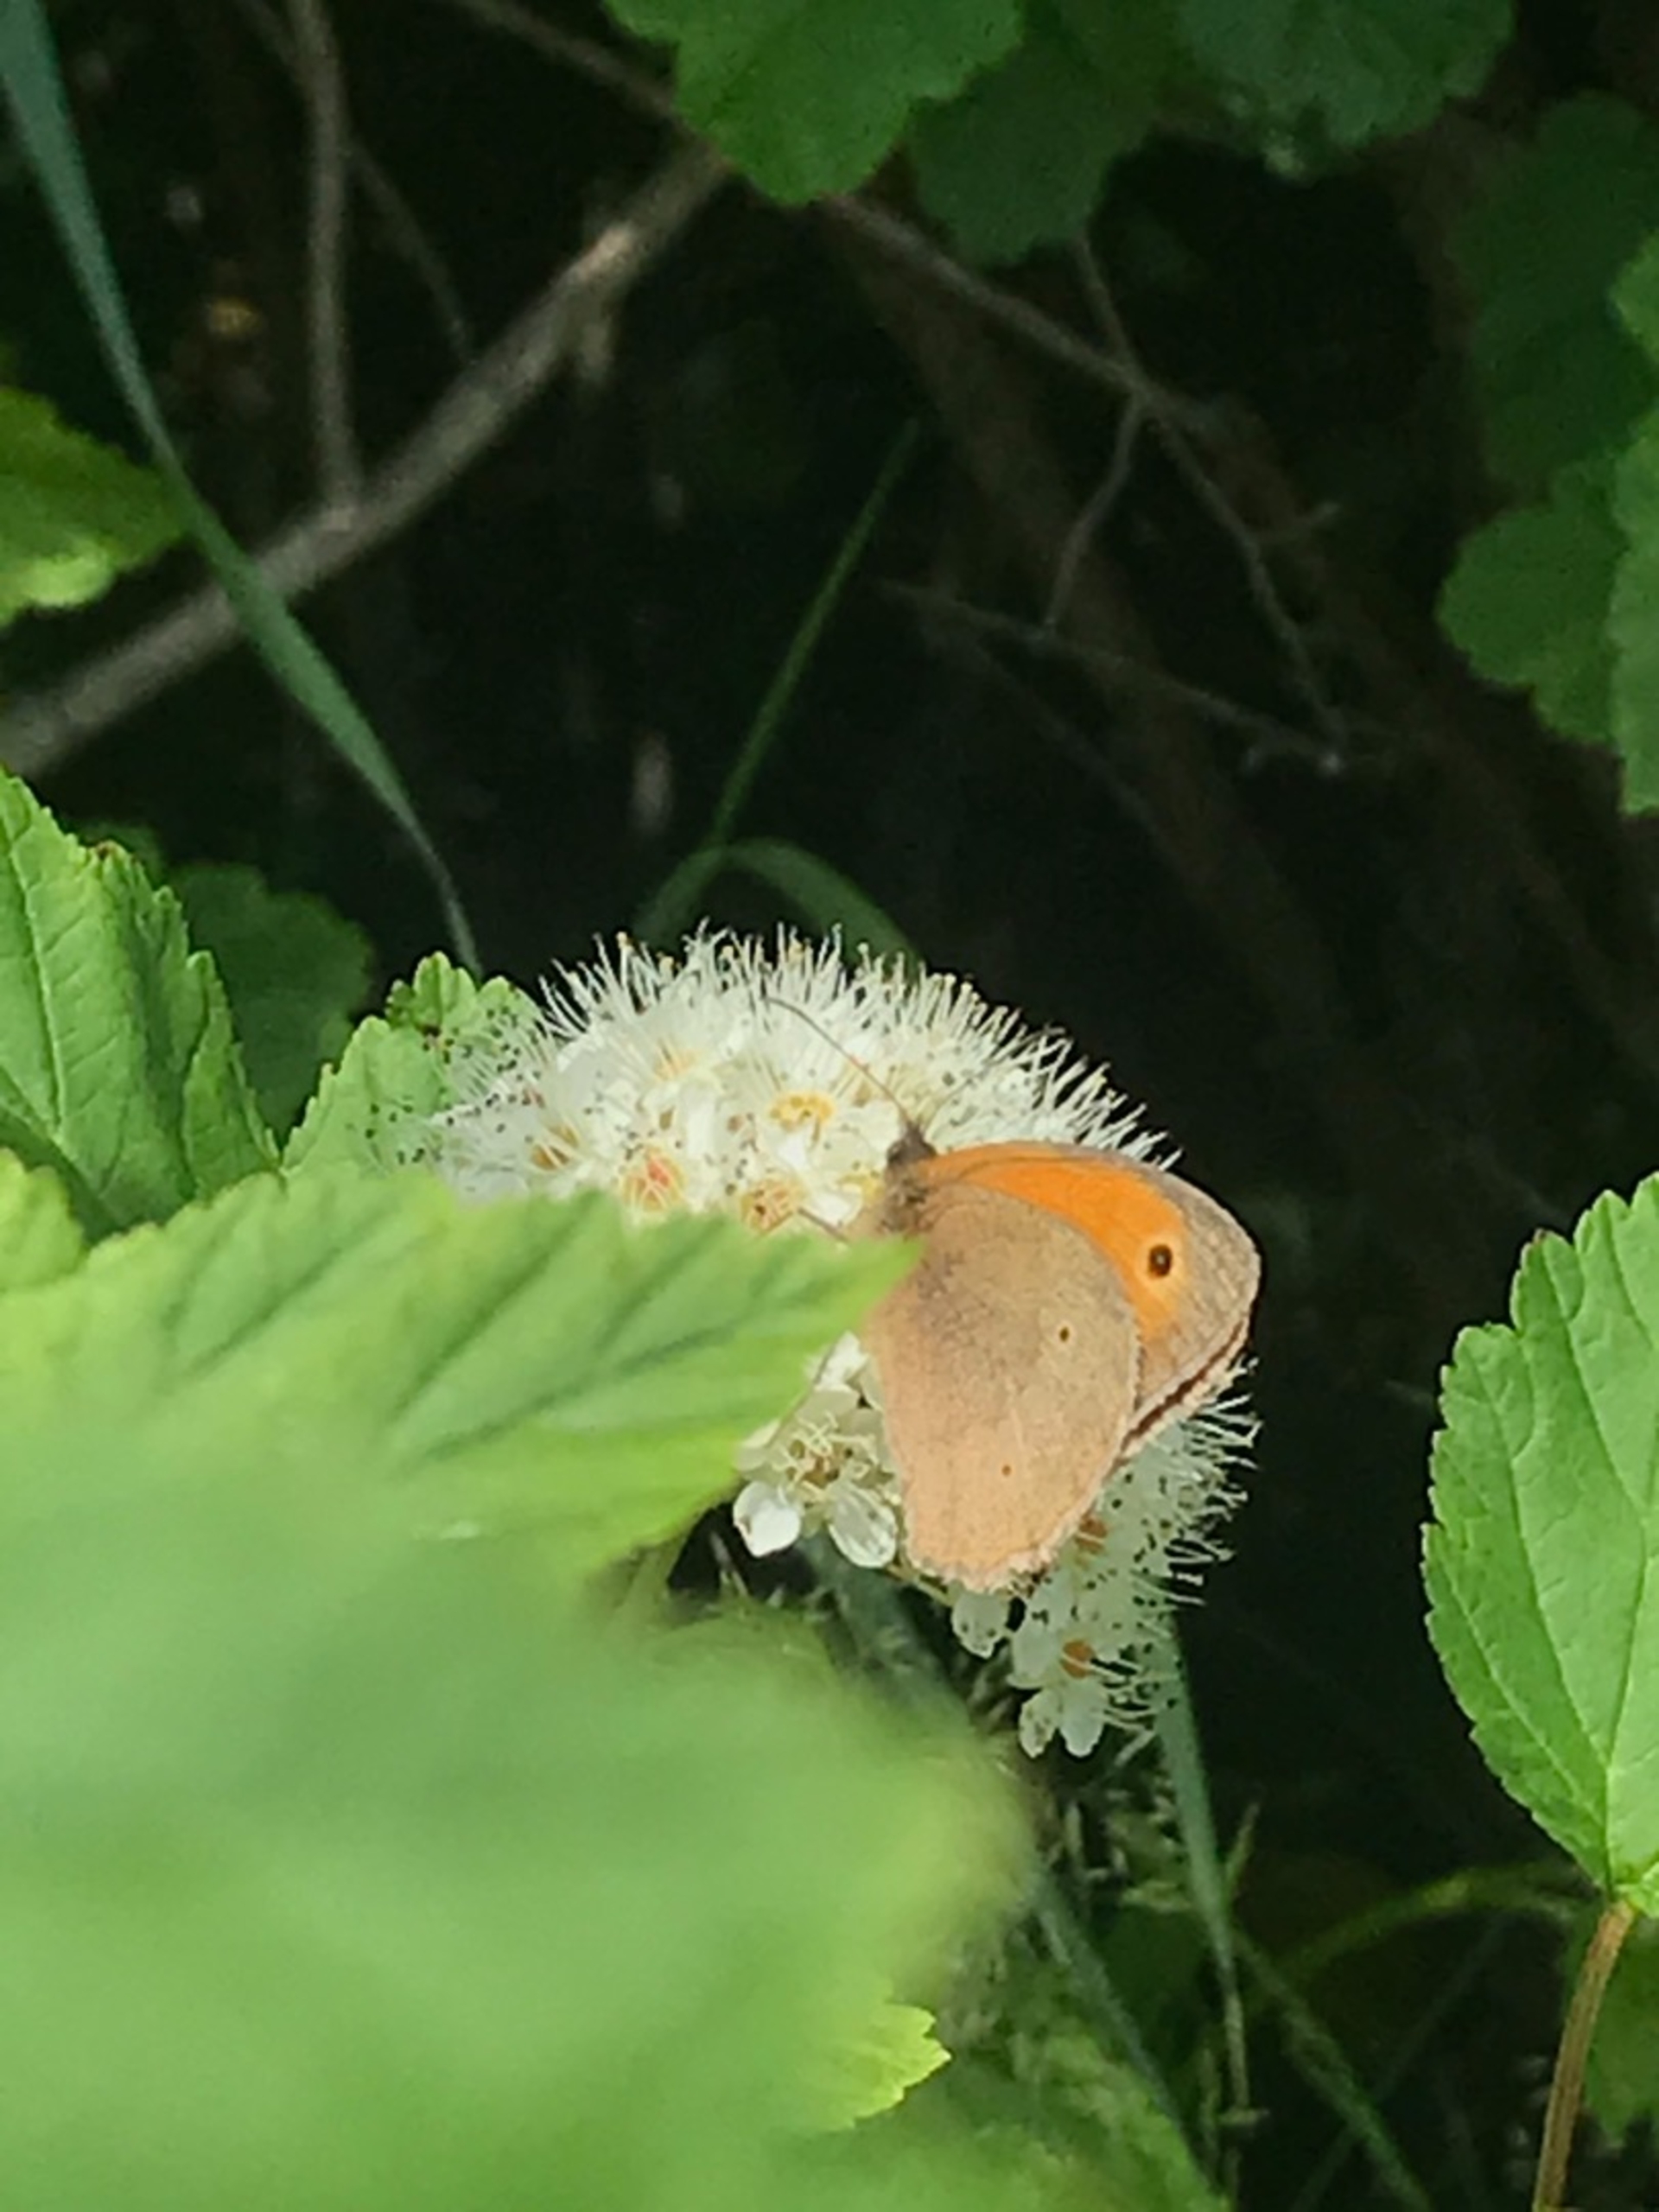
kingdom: Animalia
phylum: Arthropoda
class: Insecta
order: Lepidoptera
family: Nymphalidae
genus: Maniola
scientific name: Maniola jurtina
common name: Græsrandøje
